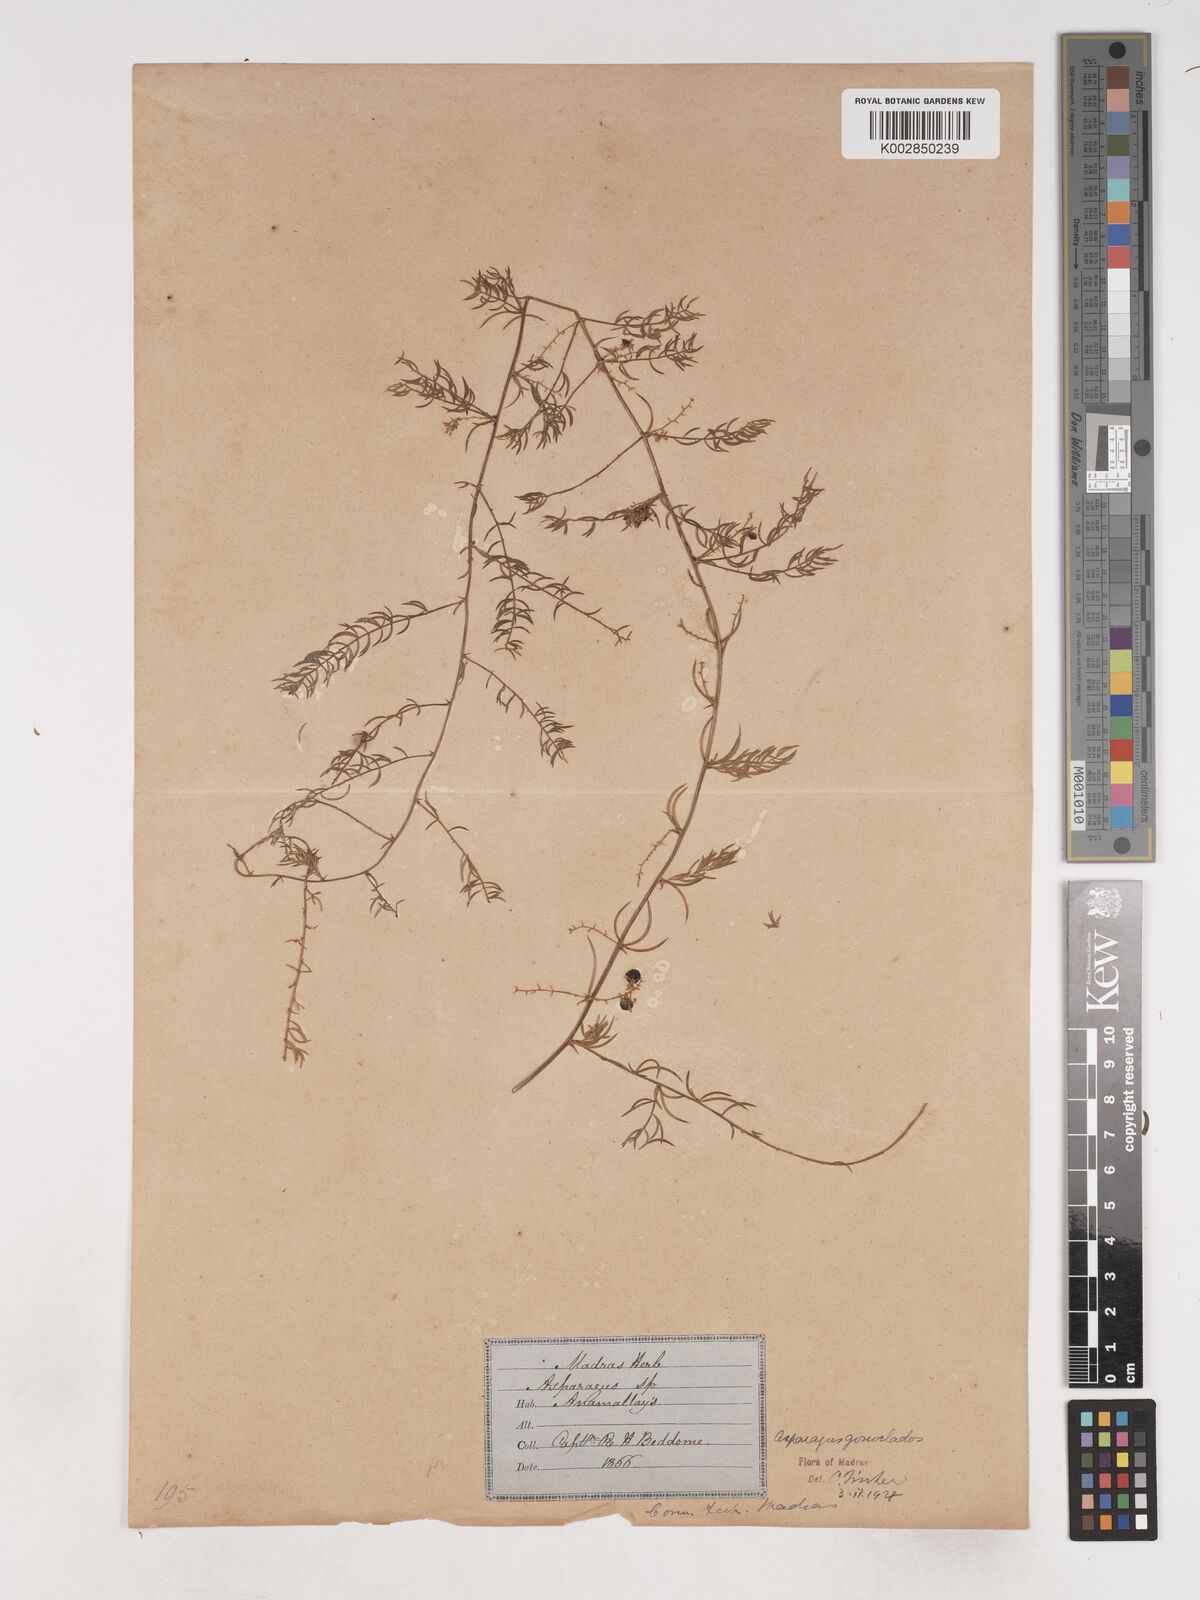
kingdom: Plantae
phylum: Tracheophyta
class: Liliopsida
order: Asparagales
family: Asparagaceae
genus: Asparagus
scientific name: Asparagus gonoclados
